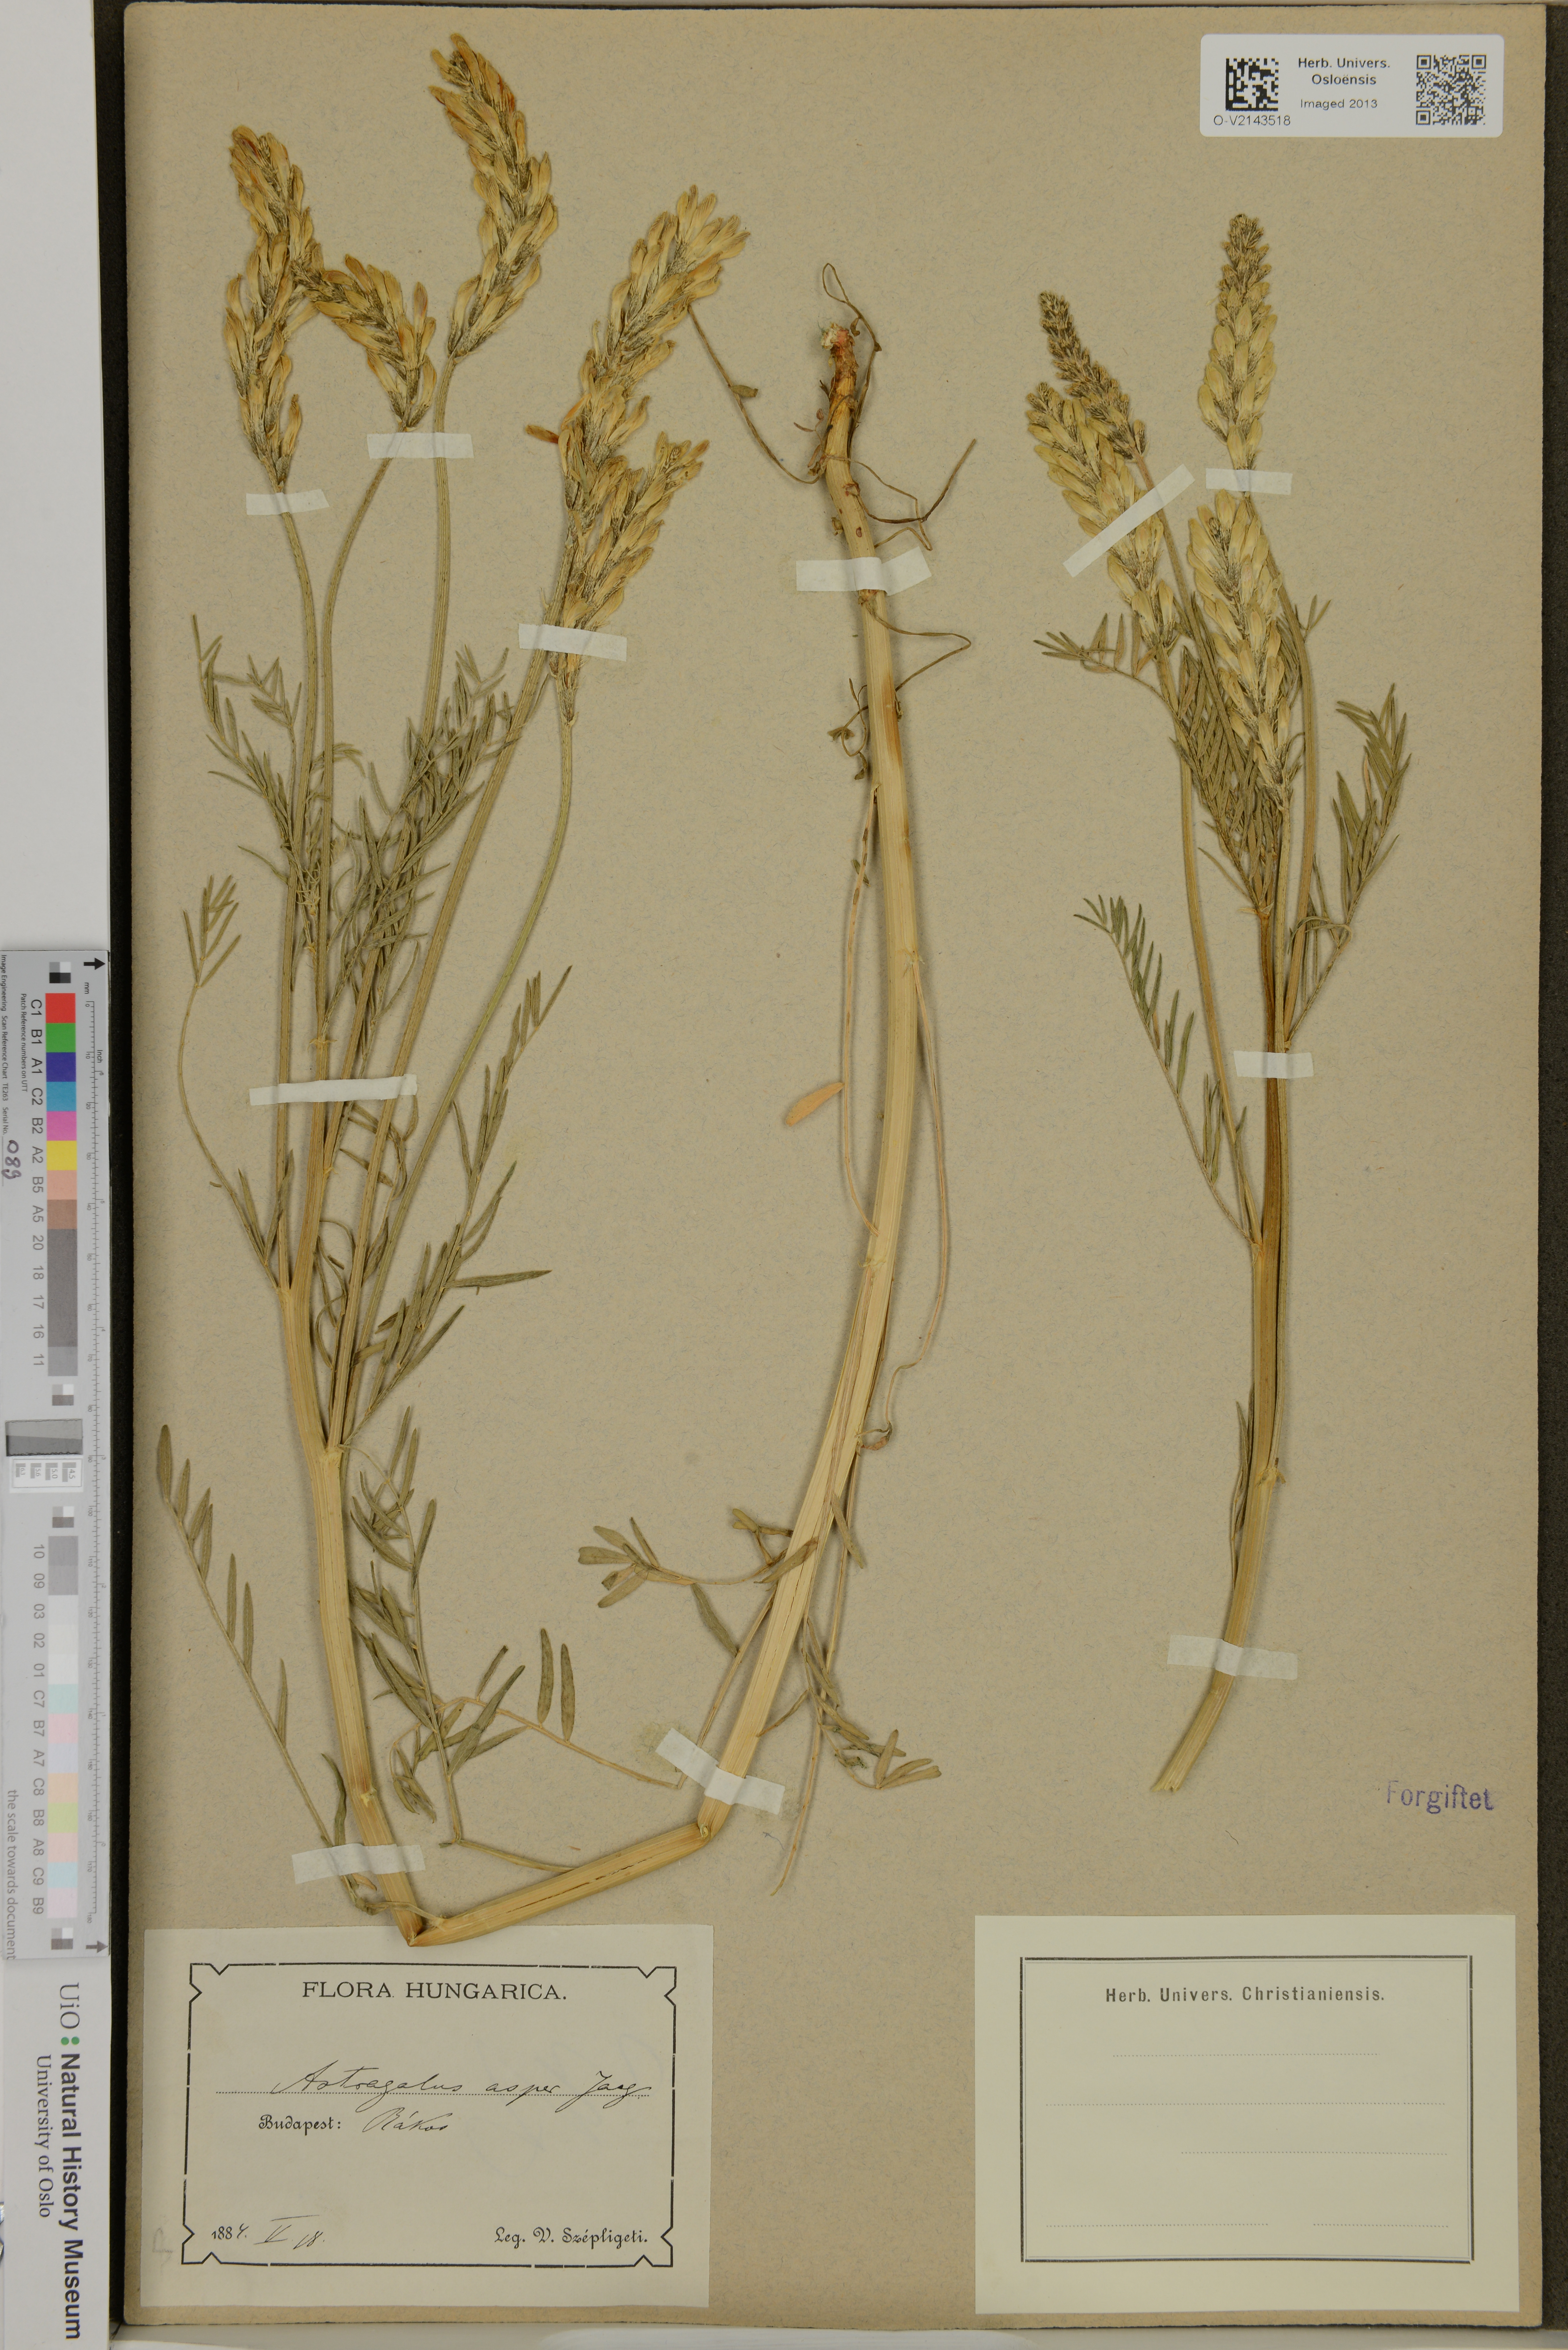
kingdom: Plantae
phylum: Tracheophyta
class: Magnoliopsida
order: Fabales
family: Fabaceae
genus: Astragalus
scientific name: Astragalus asper
